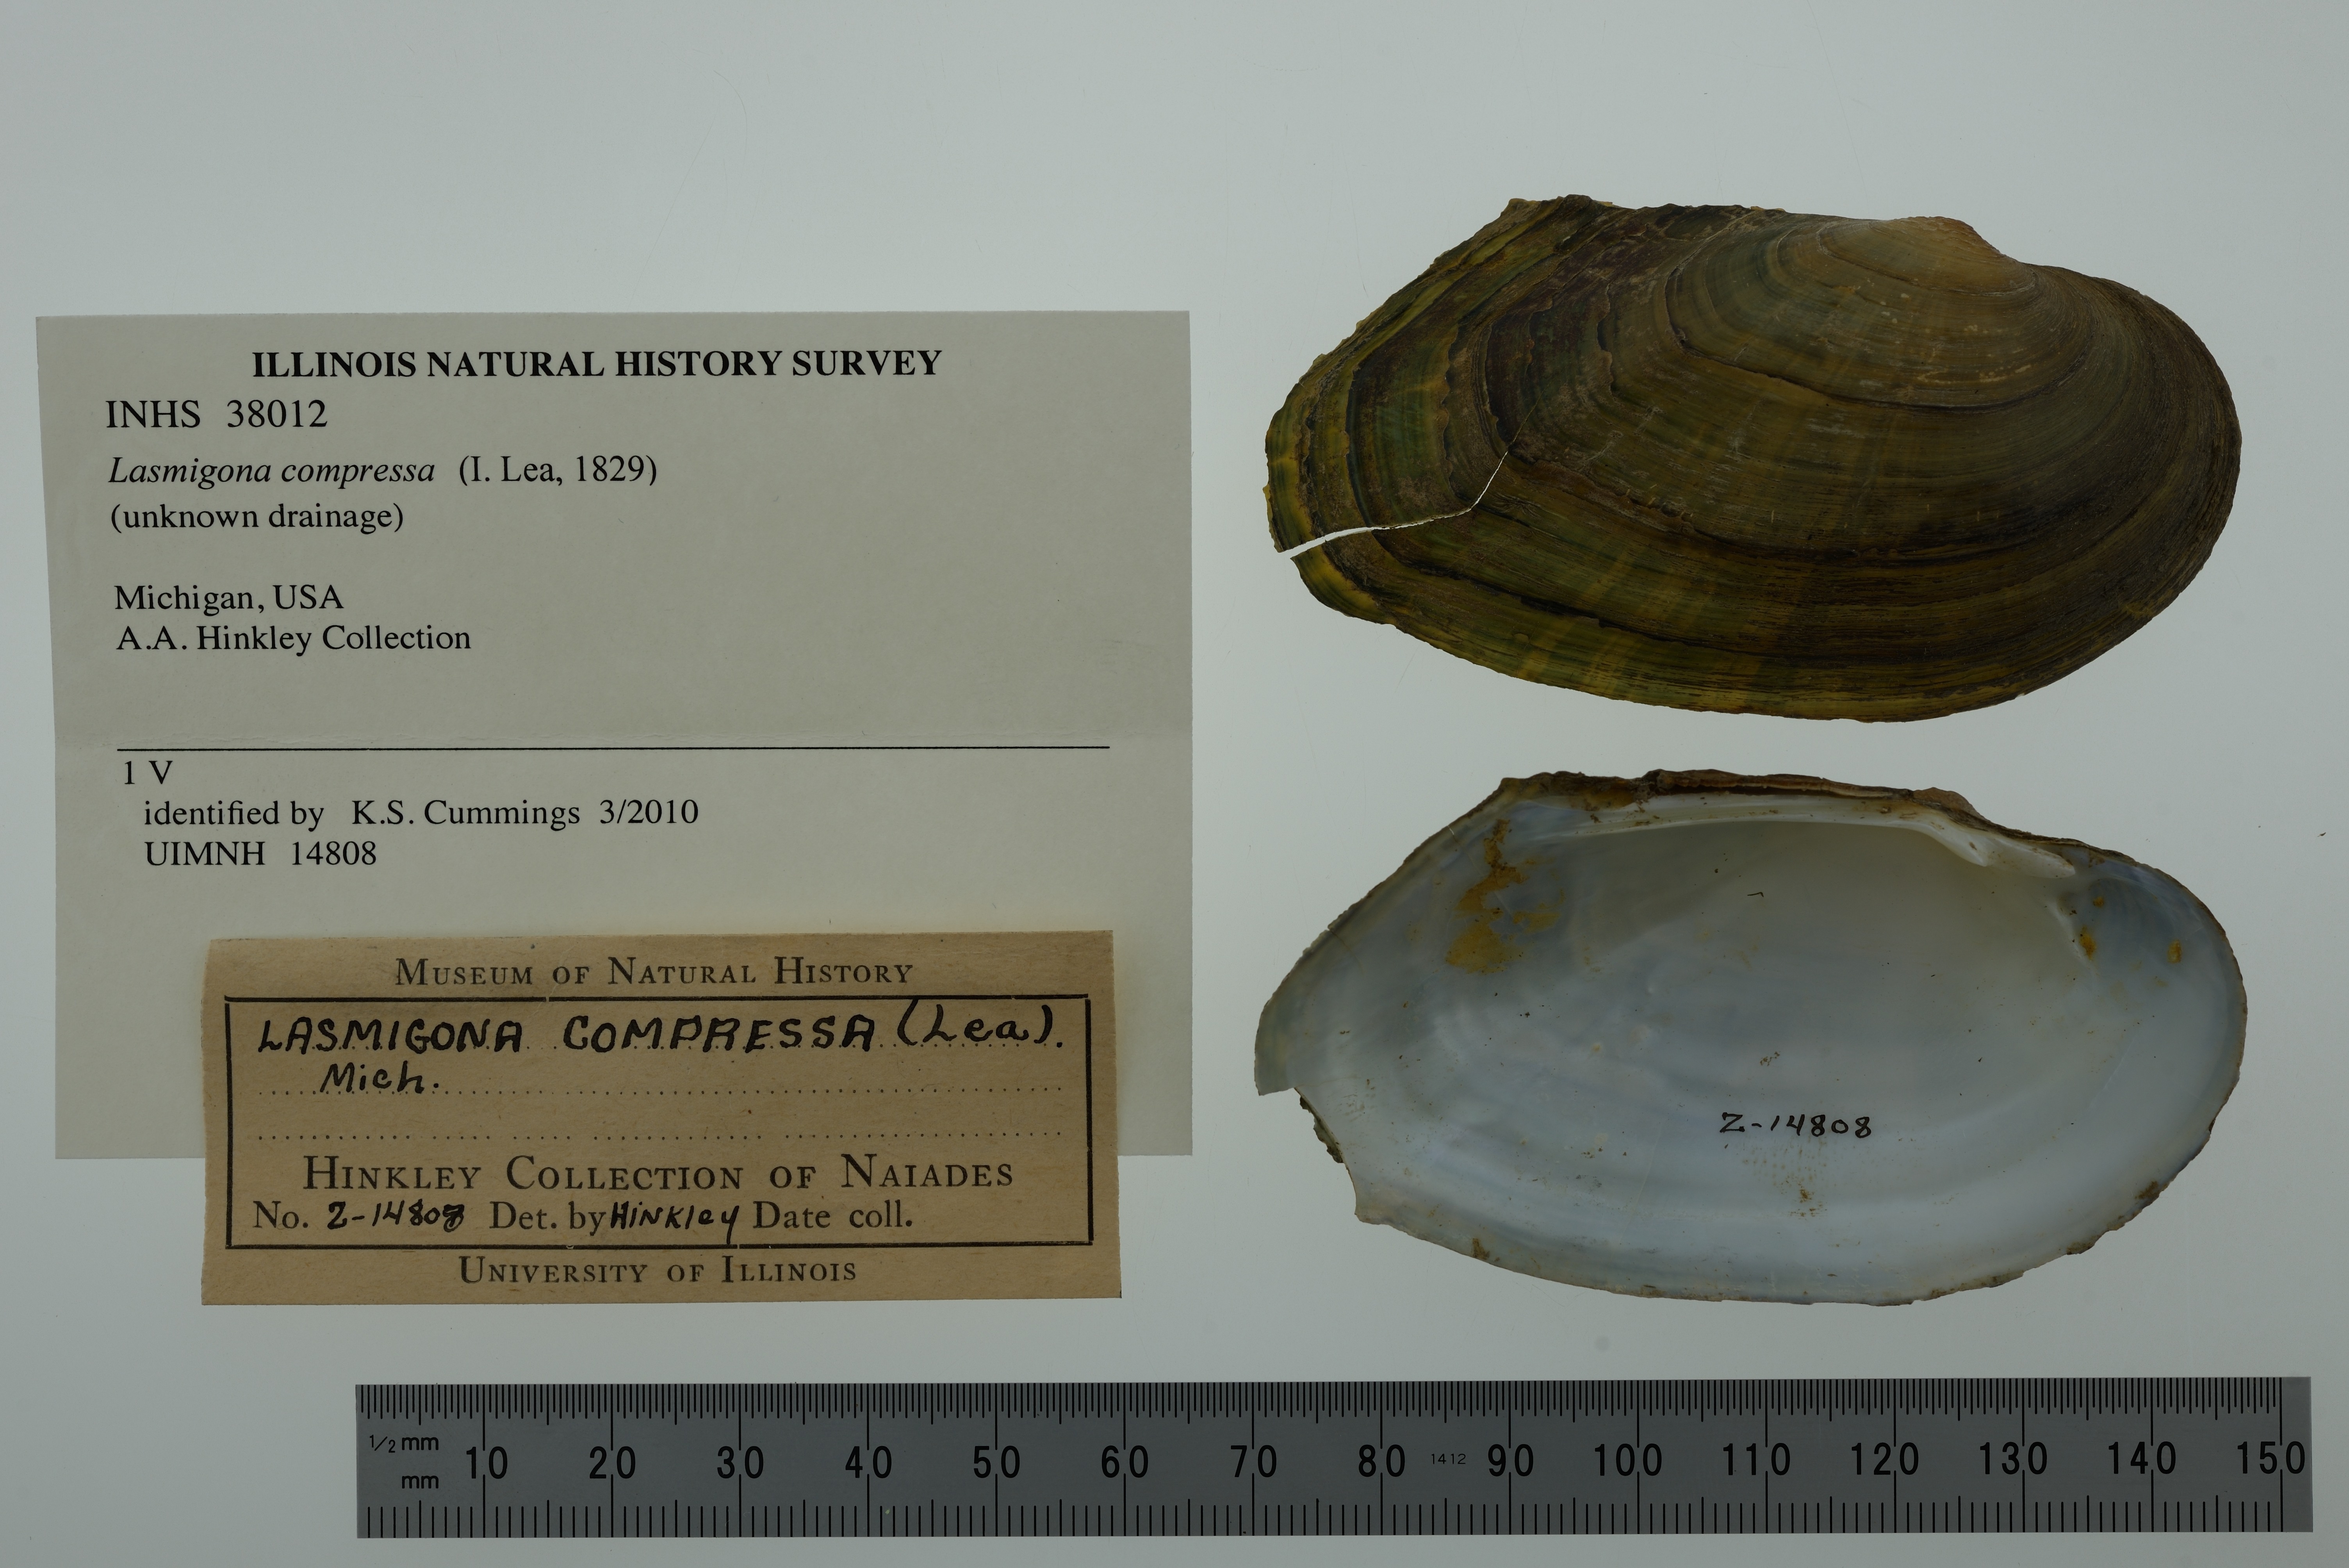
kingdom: Animalia
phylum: Mollusca
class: Bivalvia
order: Unionida
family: Unionidae
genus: Lasmigona
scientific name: Lasmigona compressa
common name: Creek heelsplitter
